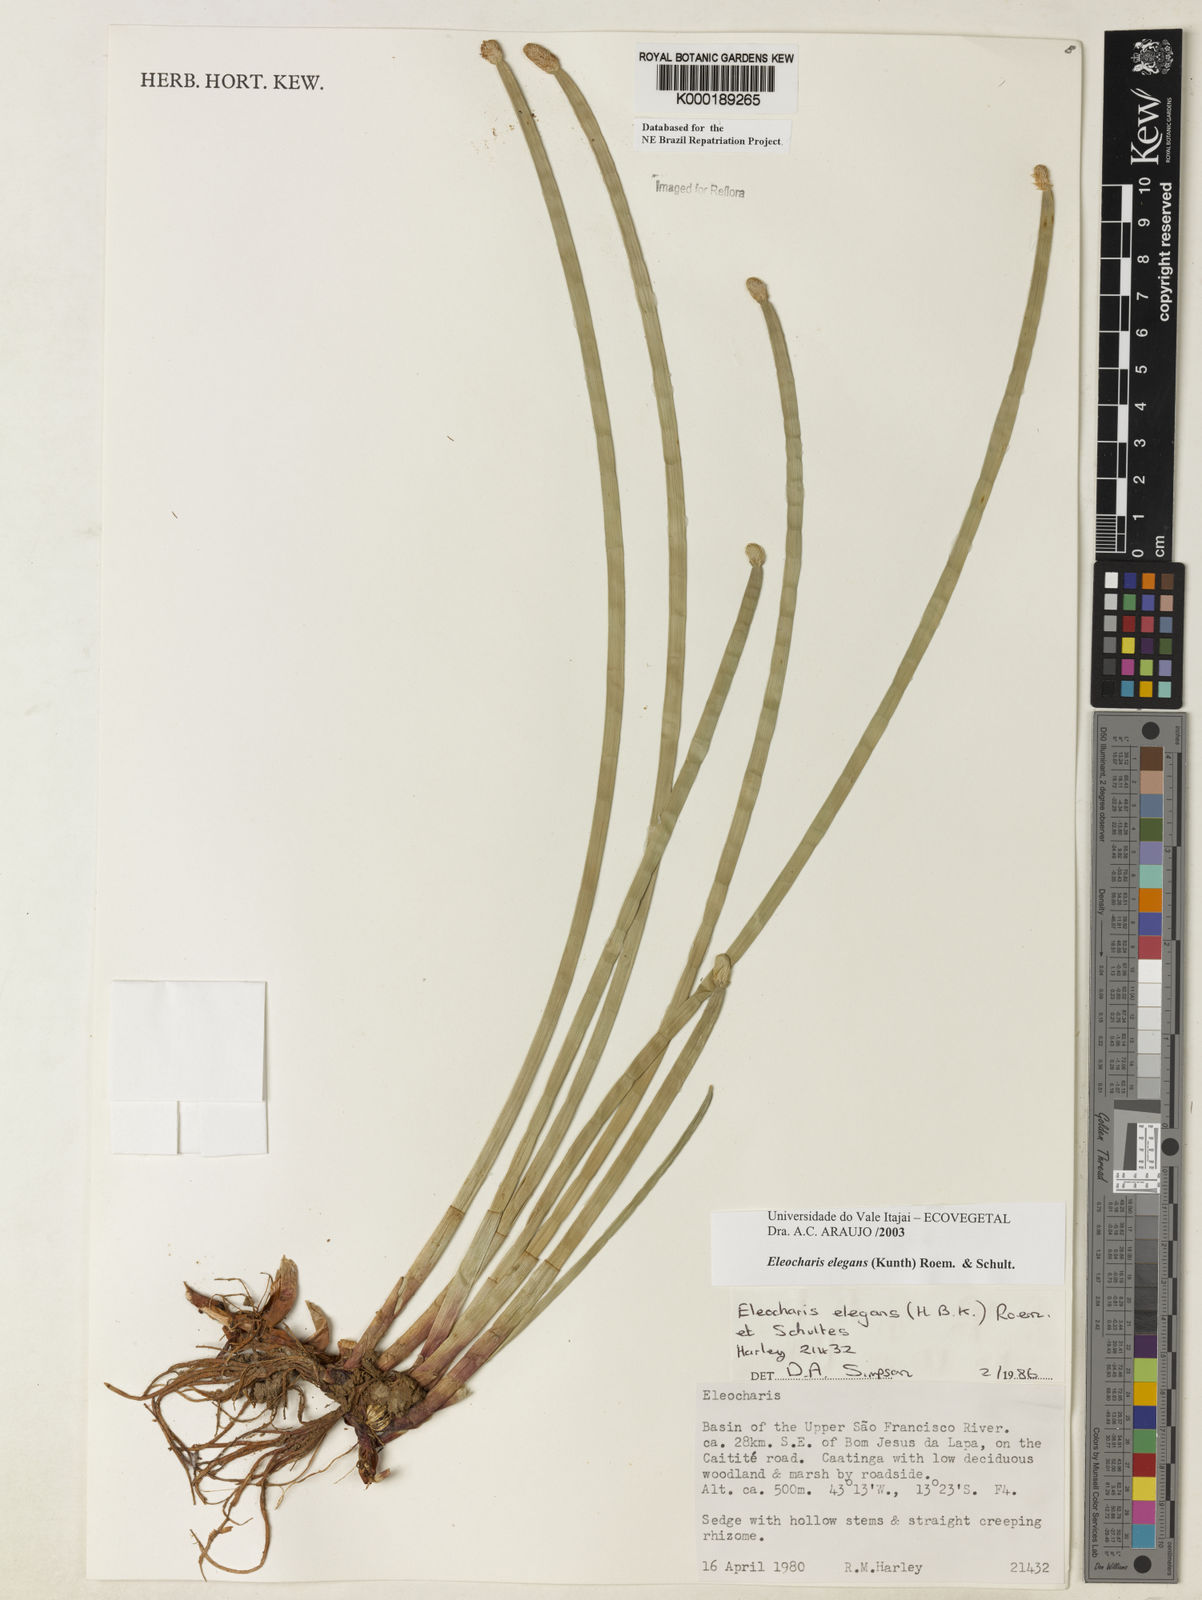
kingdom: Plantae
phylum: Tracheophyta
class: Liliopsida
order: Poales
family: Cyperaceae
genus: Eleocharis
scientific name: Eleocharis elegans
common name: Elegant spike-rush
